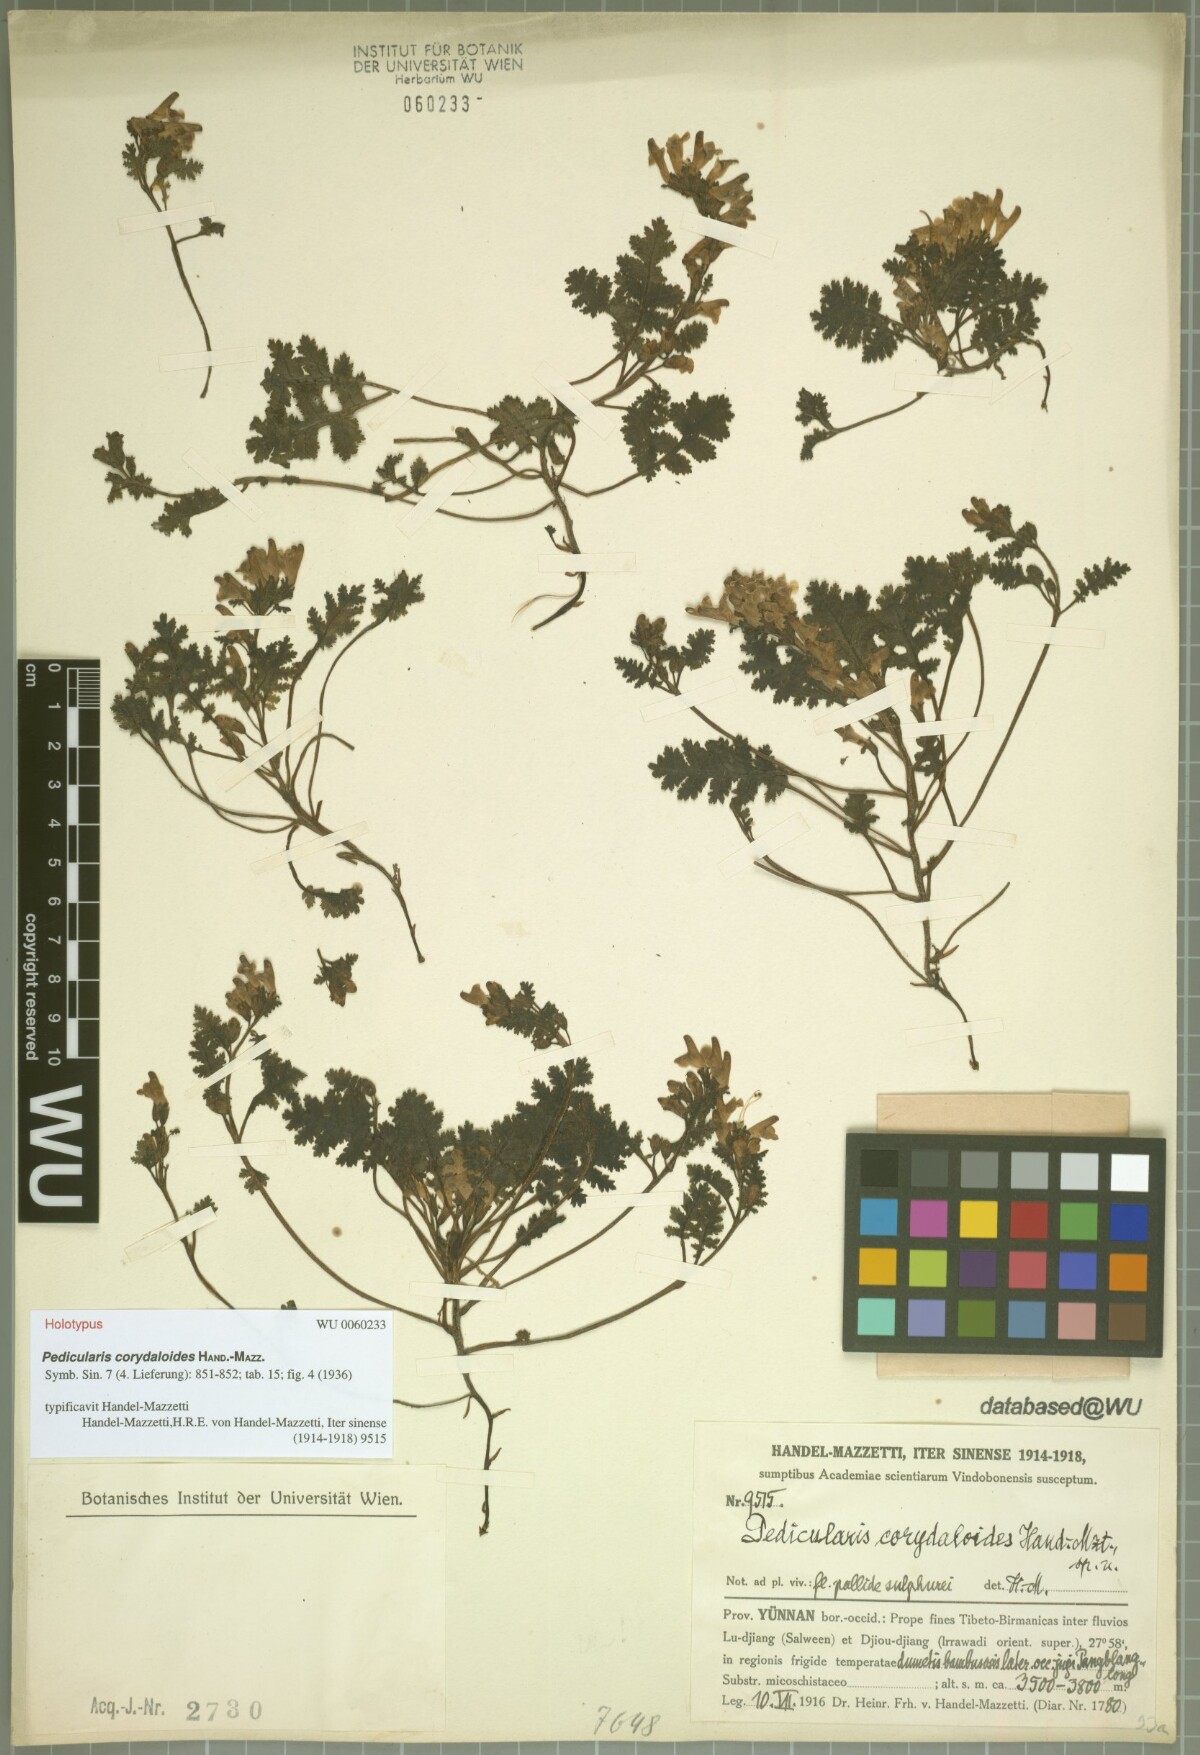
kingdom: Plantae
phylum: Tracheophyta
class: Magnoliopsida
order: Lamiales
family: Orobanchaceae
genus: Pedicularis
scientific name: Pedicularis corydaloides
